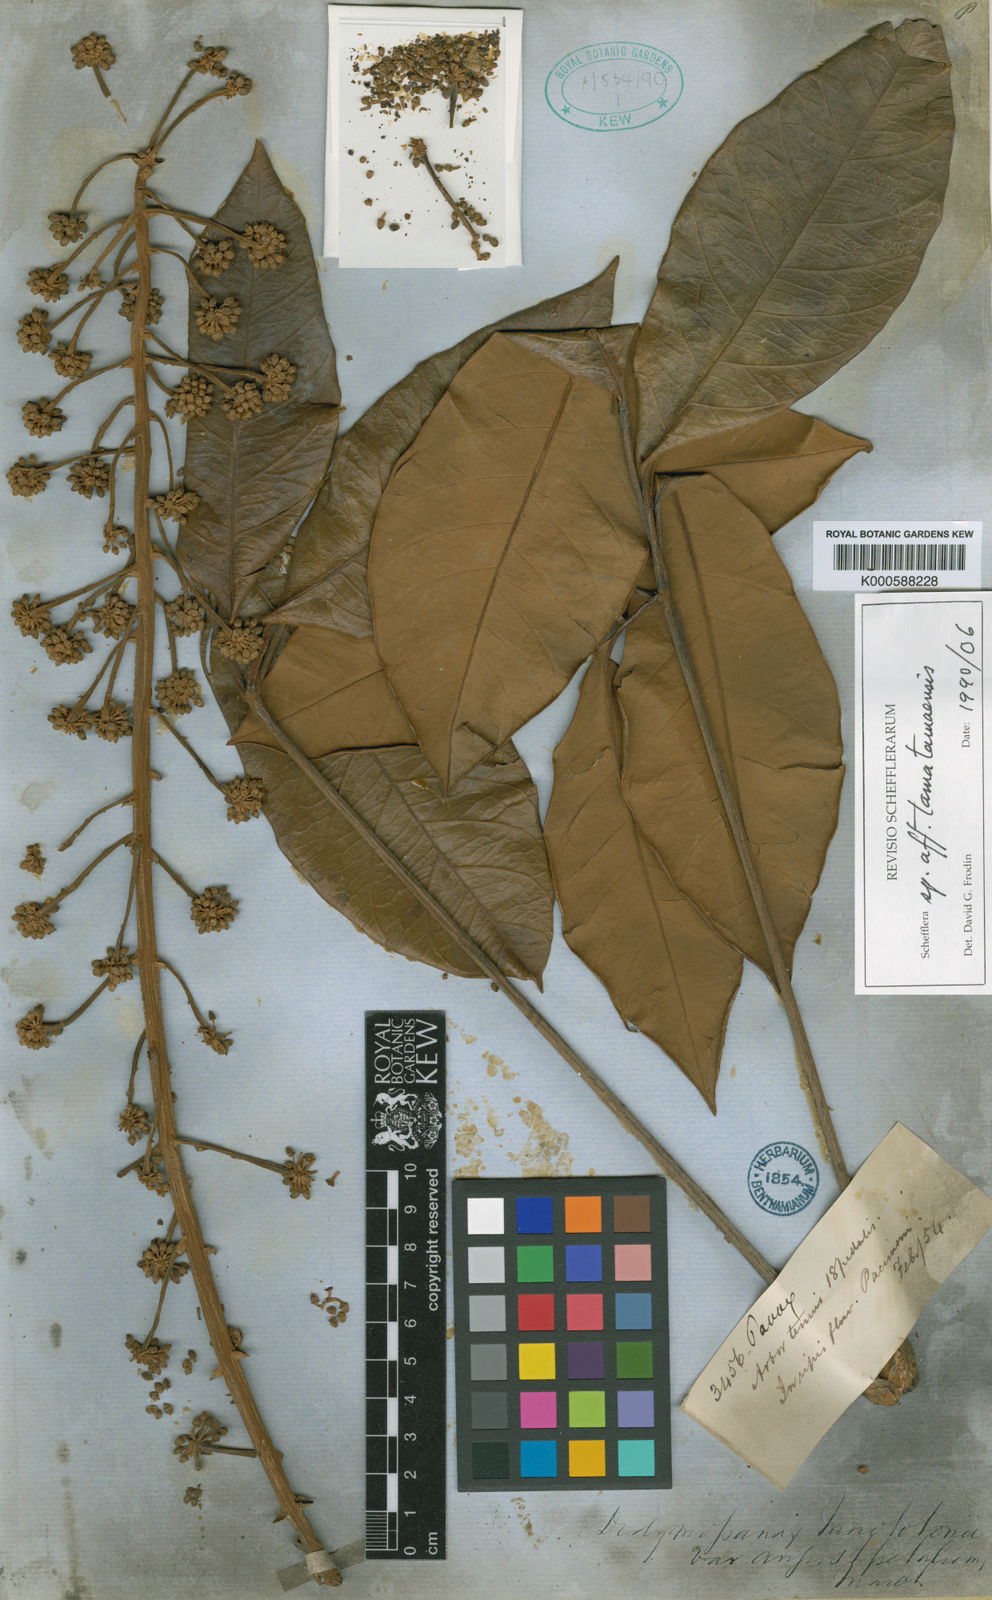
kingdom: Plantae
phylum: Tracheophyta
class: Magnoliopsida
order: Apiales
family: Araliaceae
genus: Didymopanax
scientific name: Didymopanax tamatamaensis
